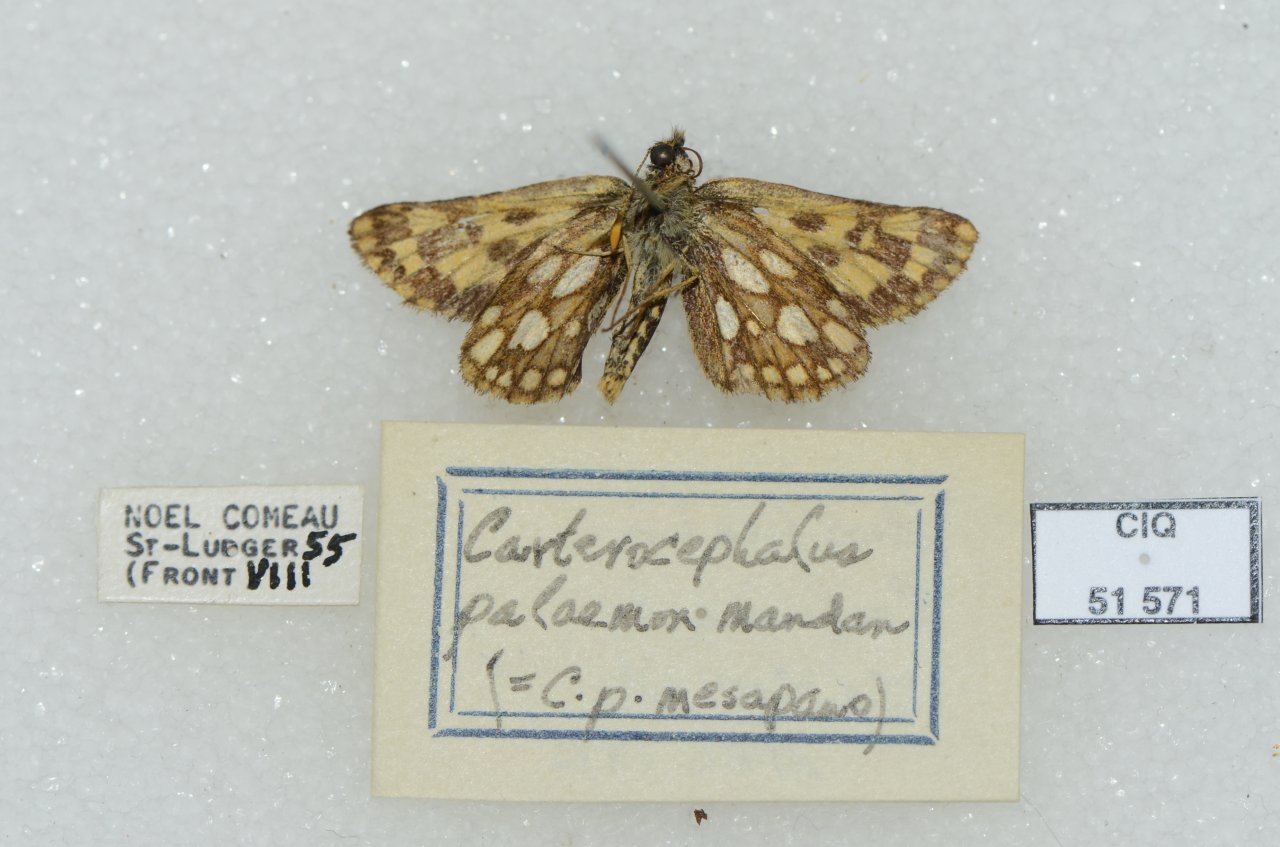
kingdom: Animalia
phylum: Arthropoda
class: Insecta
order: Lepidoptera
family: Hesperiidae
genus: Carterocephalus
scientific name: Carterocephalus palaemon
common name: Chequered Skipper
